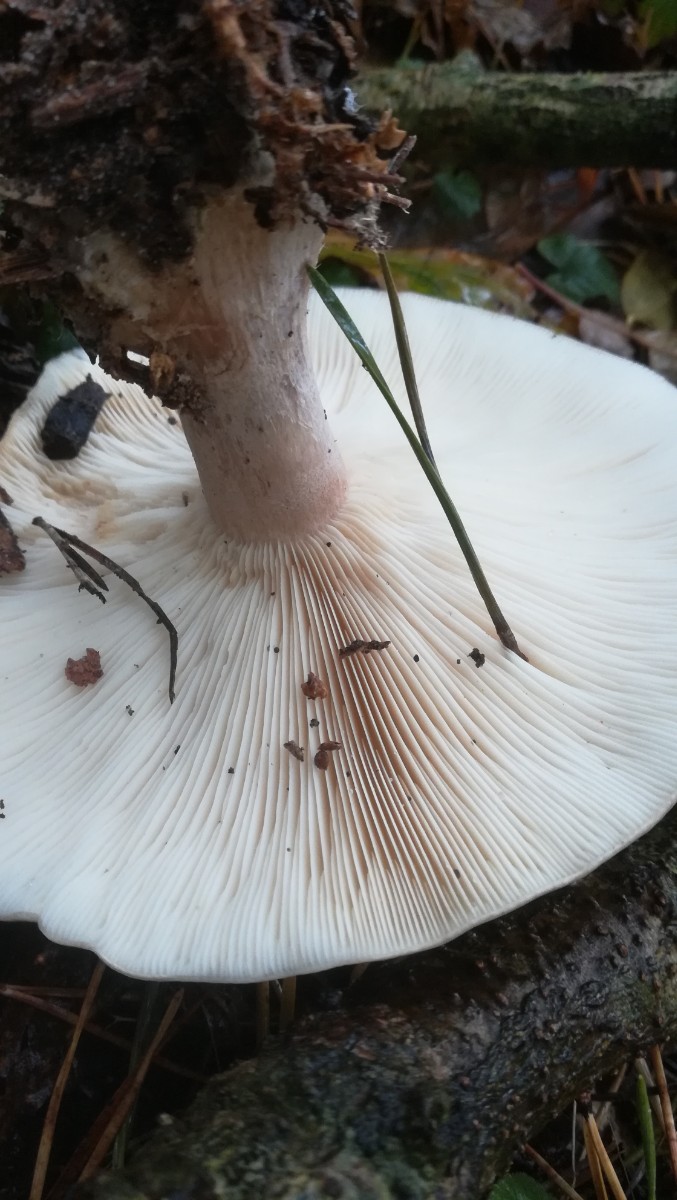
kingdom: Fungi
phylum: Basidiomycota
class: Agaricomycetes
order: Agaricales
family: Tricholomataceae
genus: Clitocybe
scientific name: Clitocybe nebularis
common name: tåge-tragthat
